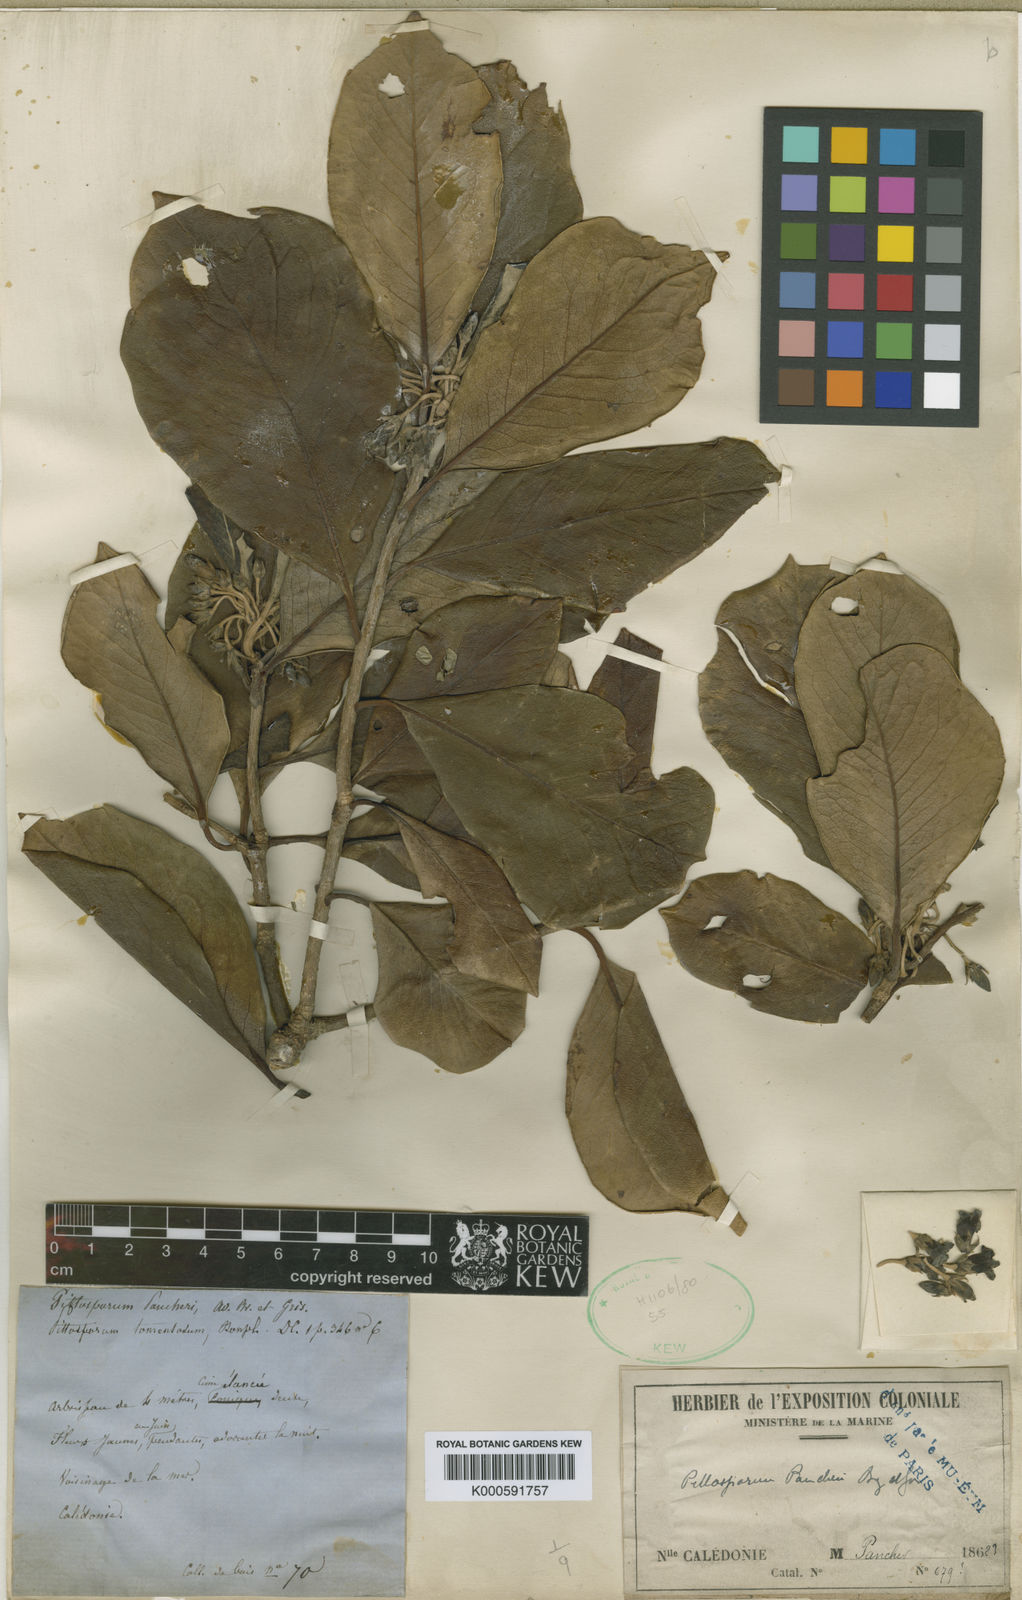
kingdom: Plantae
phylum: Tracheophyta
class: Magnoliopsida
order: Apiales
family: Pittosporaceae
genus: Pittosporum
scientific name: Pittosporum pancheri
